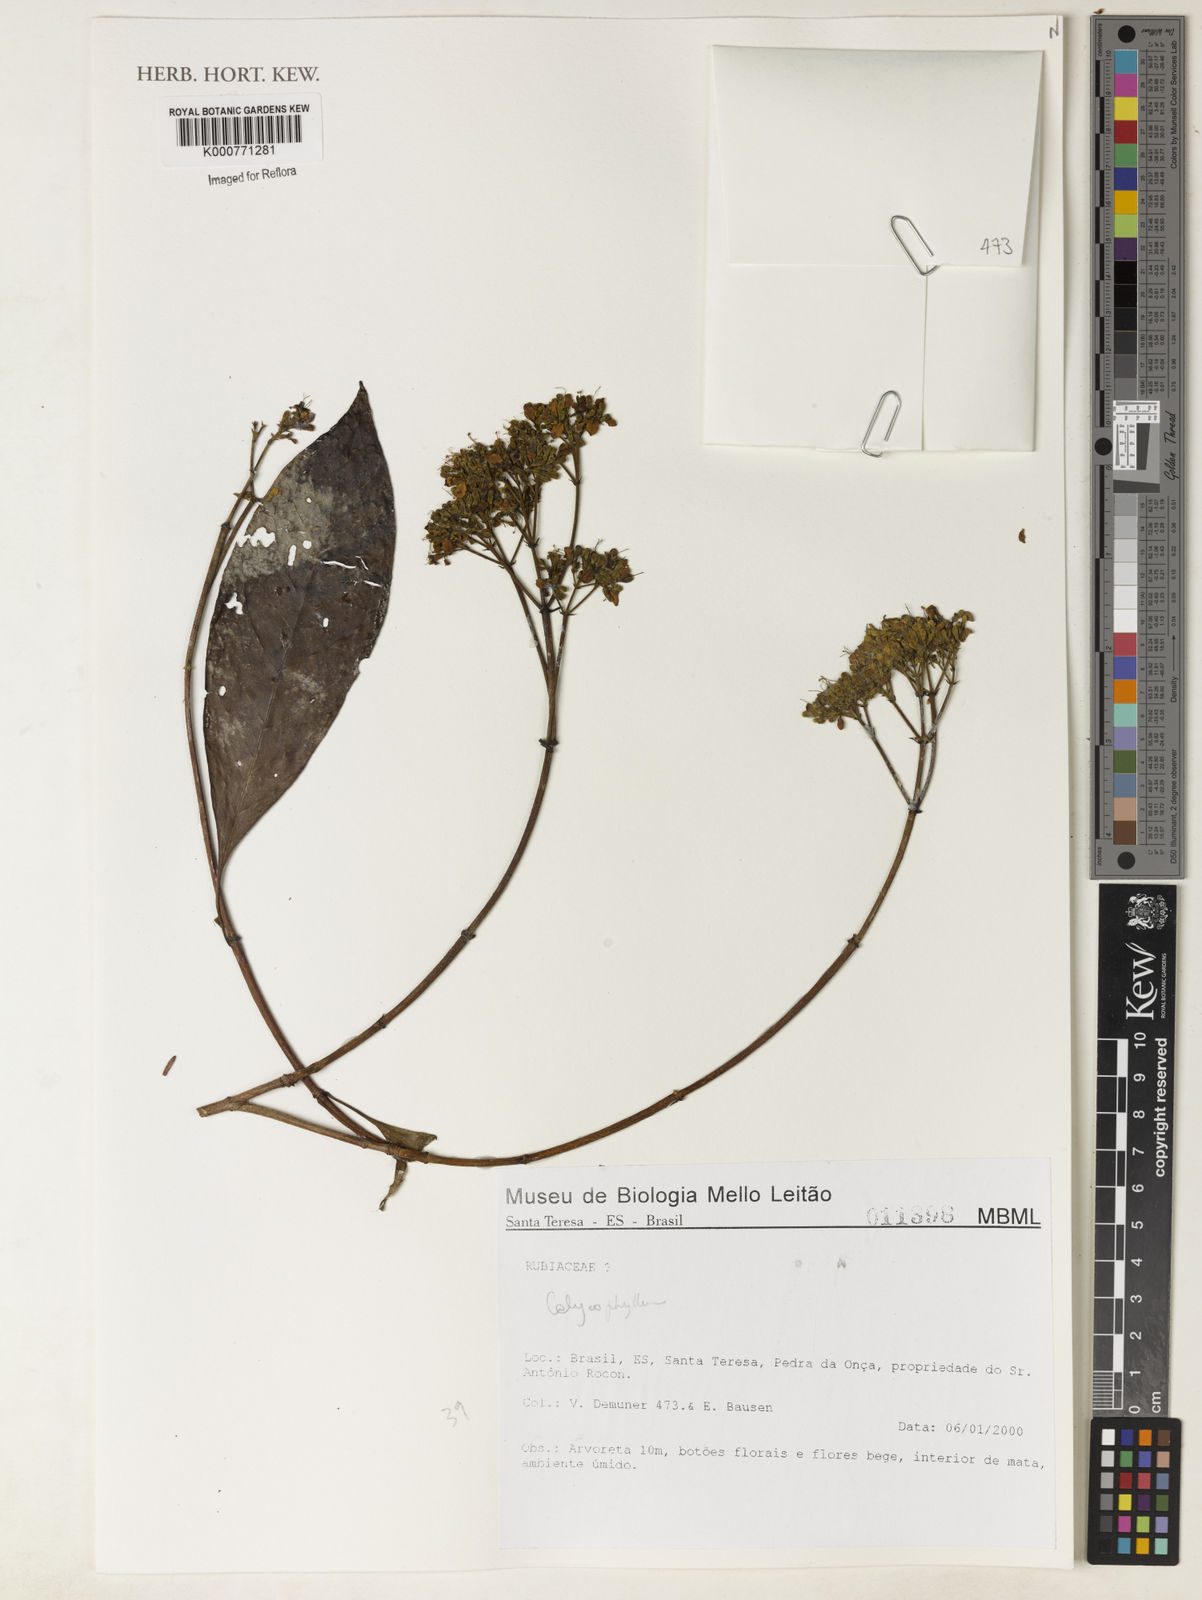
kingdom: Plantae
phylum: Tracheophyta
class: Magnoliopsida
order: Gentianales
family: Rubiaceae
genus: Calycophyllum
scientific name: Calycophyllum
